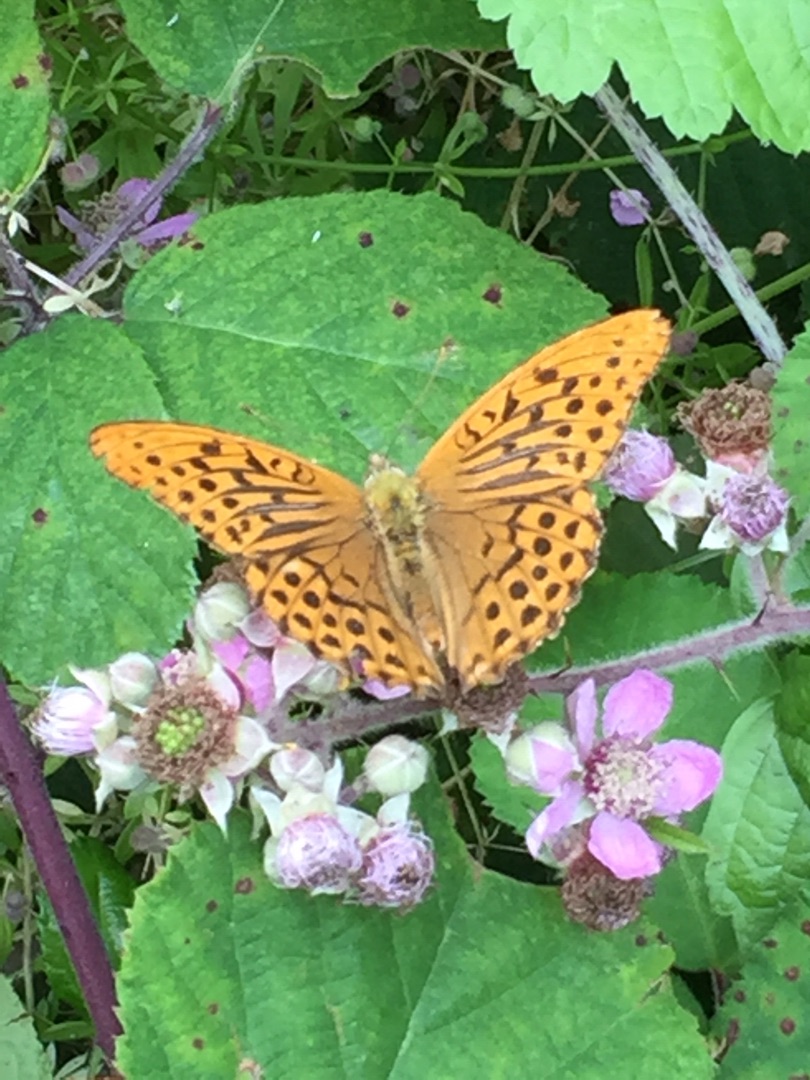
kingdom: Animalia
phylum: Arthropoda
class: Insecta
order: Lepidoptera
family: Nymphalidae
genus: Argynnis
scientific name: Argynnis paphia
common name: Kejserkåbe
